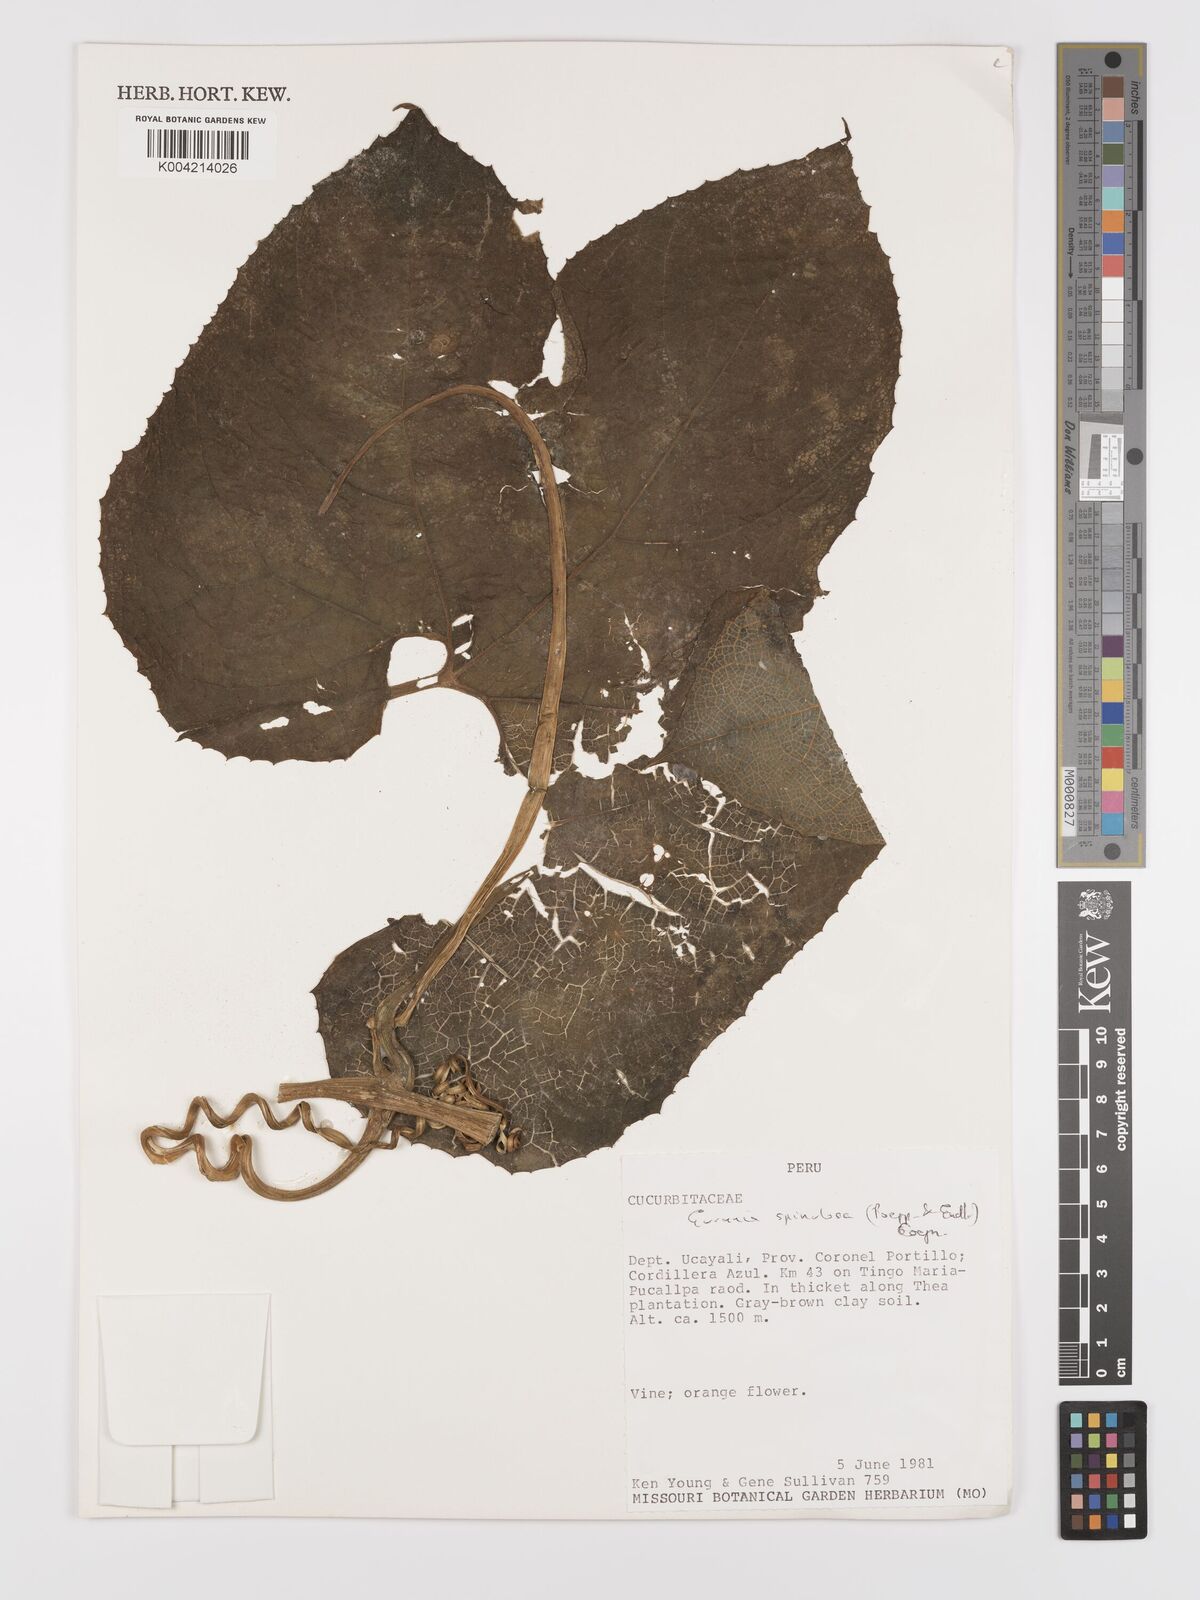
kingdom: Plantae
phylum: Tracheophyta
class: Magnoliopsida
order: Cucurbitales
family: Cucurbitaceae
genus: Gurania
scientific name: Gurania lobata
